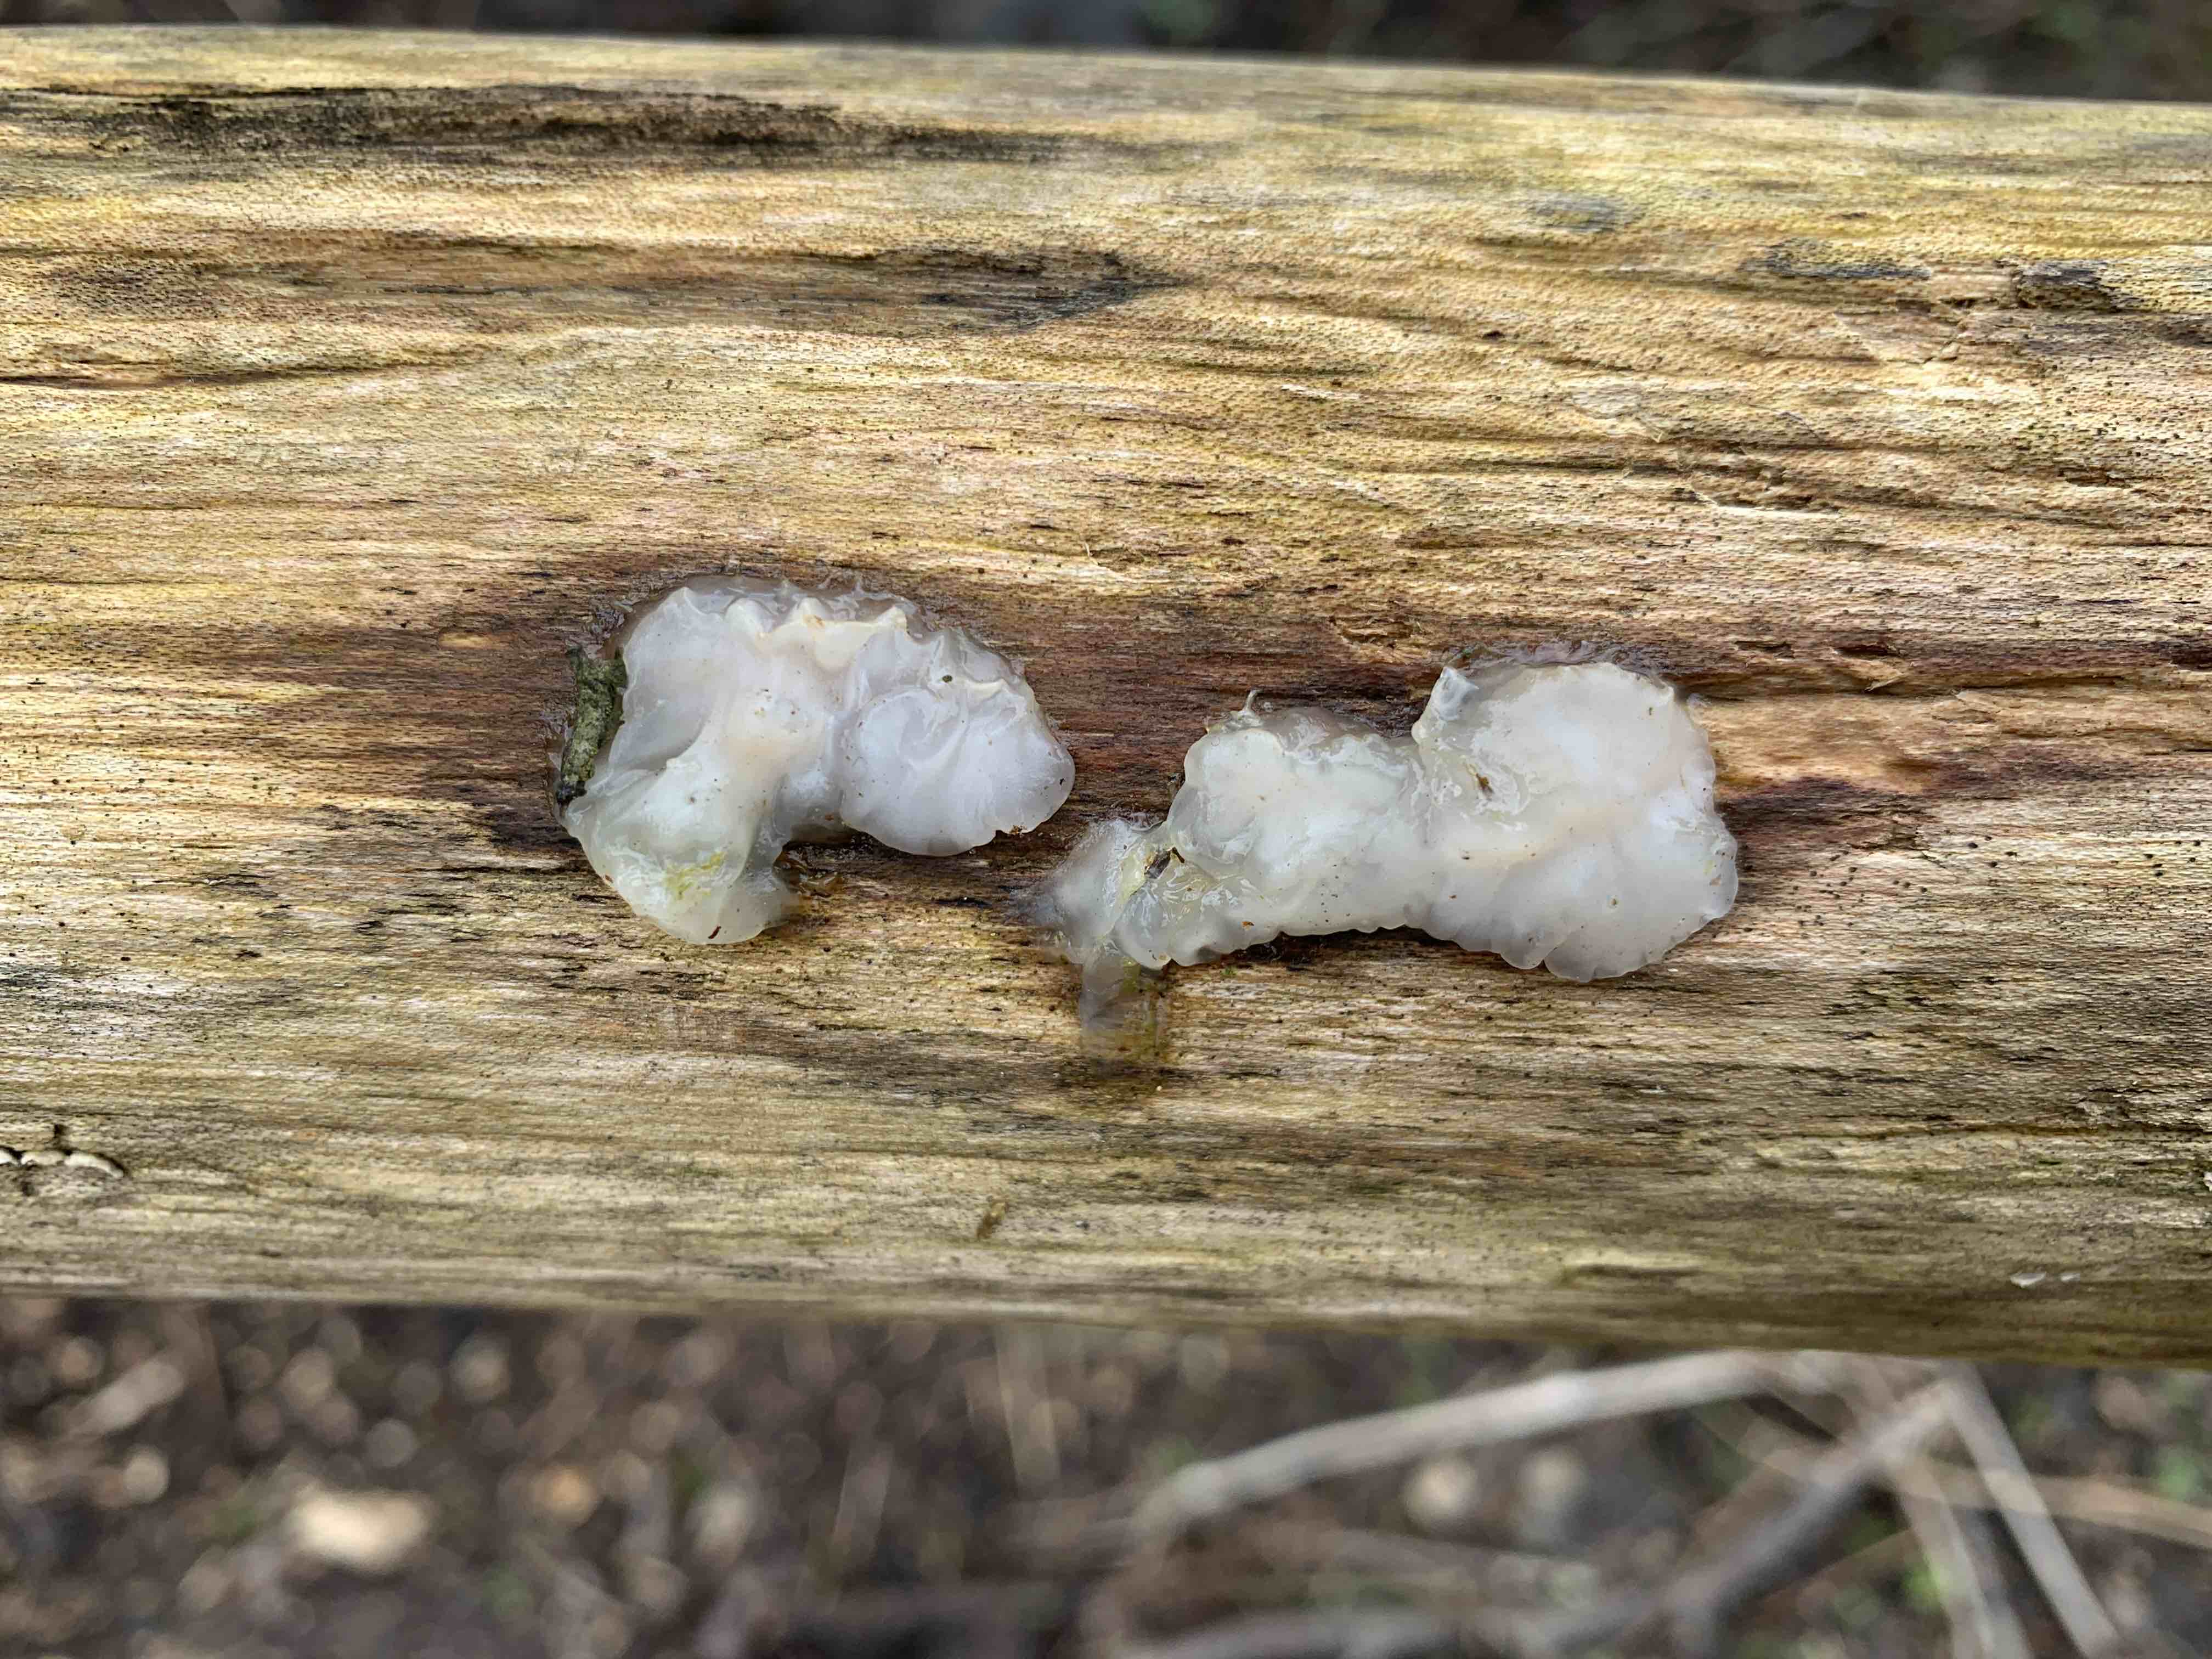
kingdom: Fungi
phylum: Basidiomycota
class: Agaricomycetes
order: Auriculariales
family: Auriculariaceae
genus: Exidia
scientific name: Exidia thuretiana
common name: hvidlig bævretop
